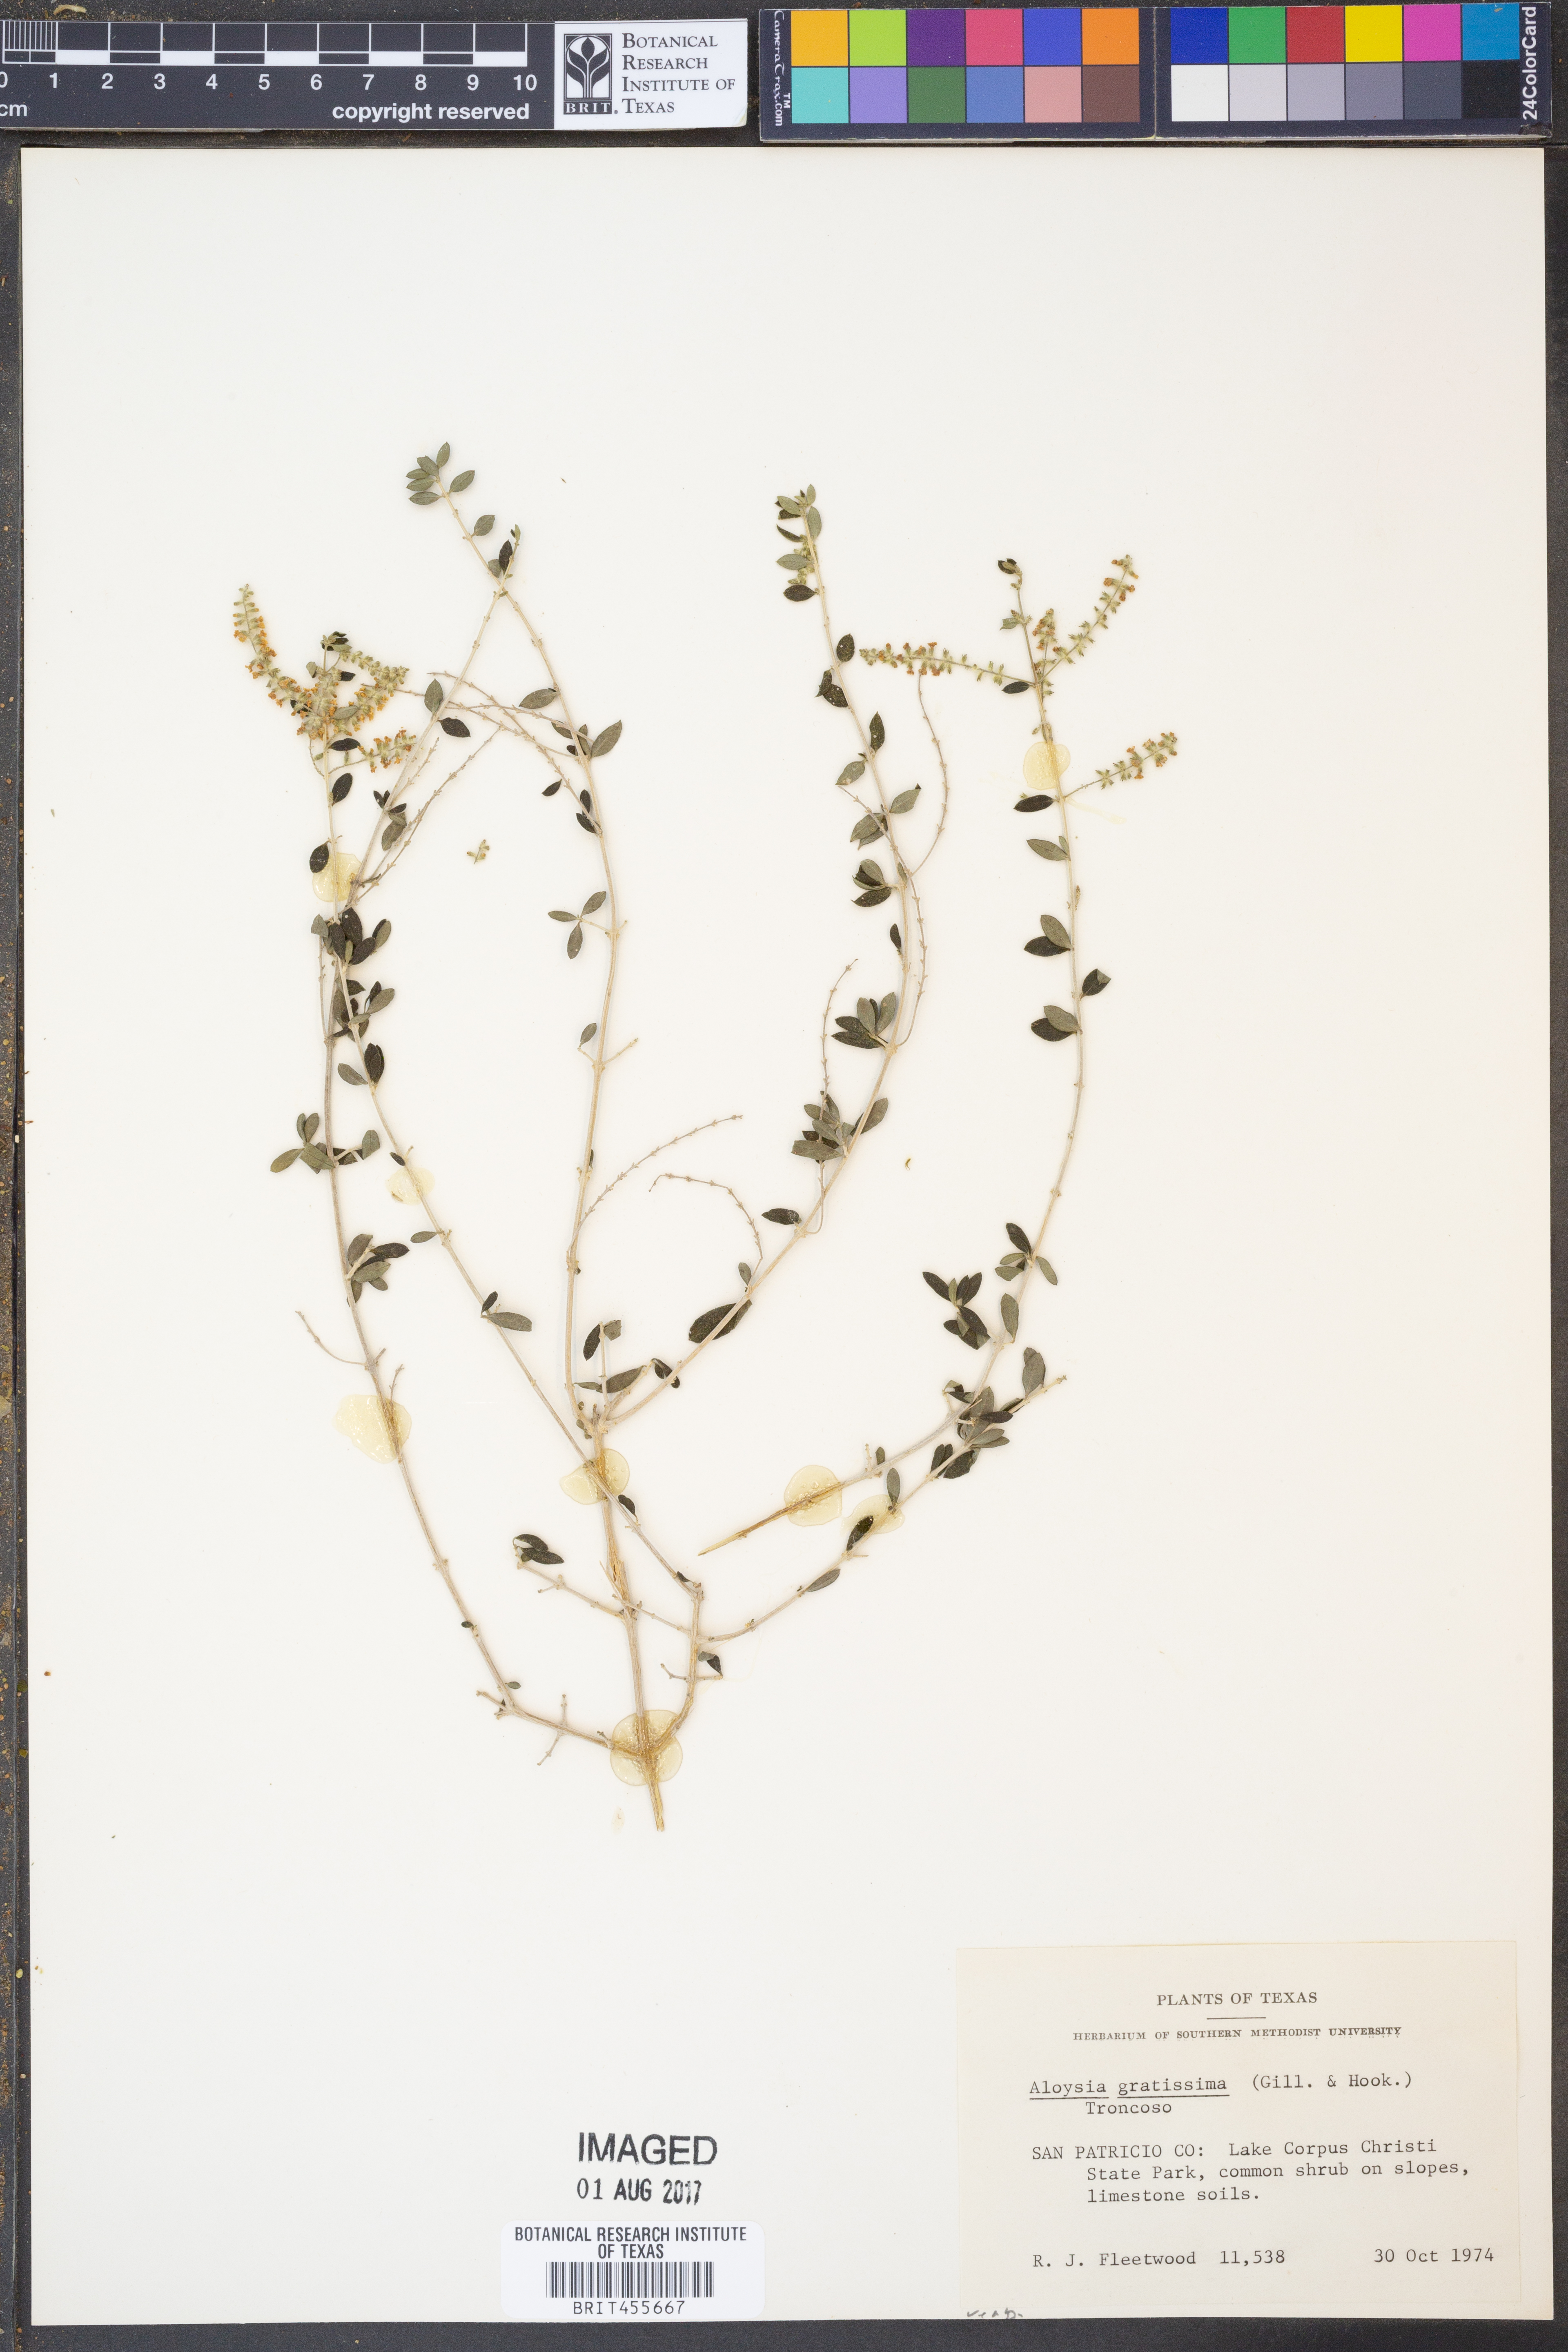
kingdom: Plantae
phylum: Tracheophyta
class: Magnoliopsida
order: Lamiales
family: Verbenaceae
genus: Aloysia
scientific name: Aloysia gratissima
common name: Common bee-brush
